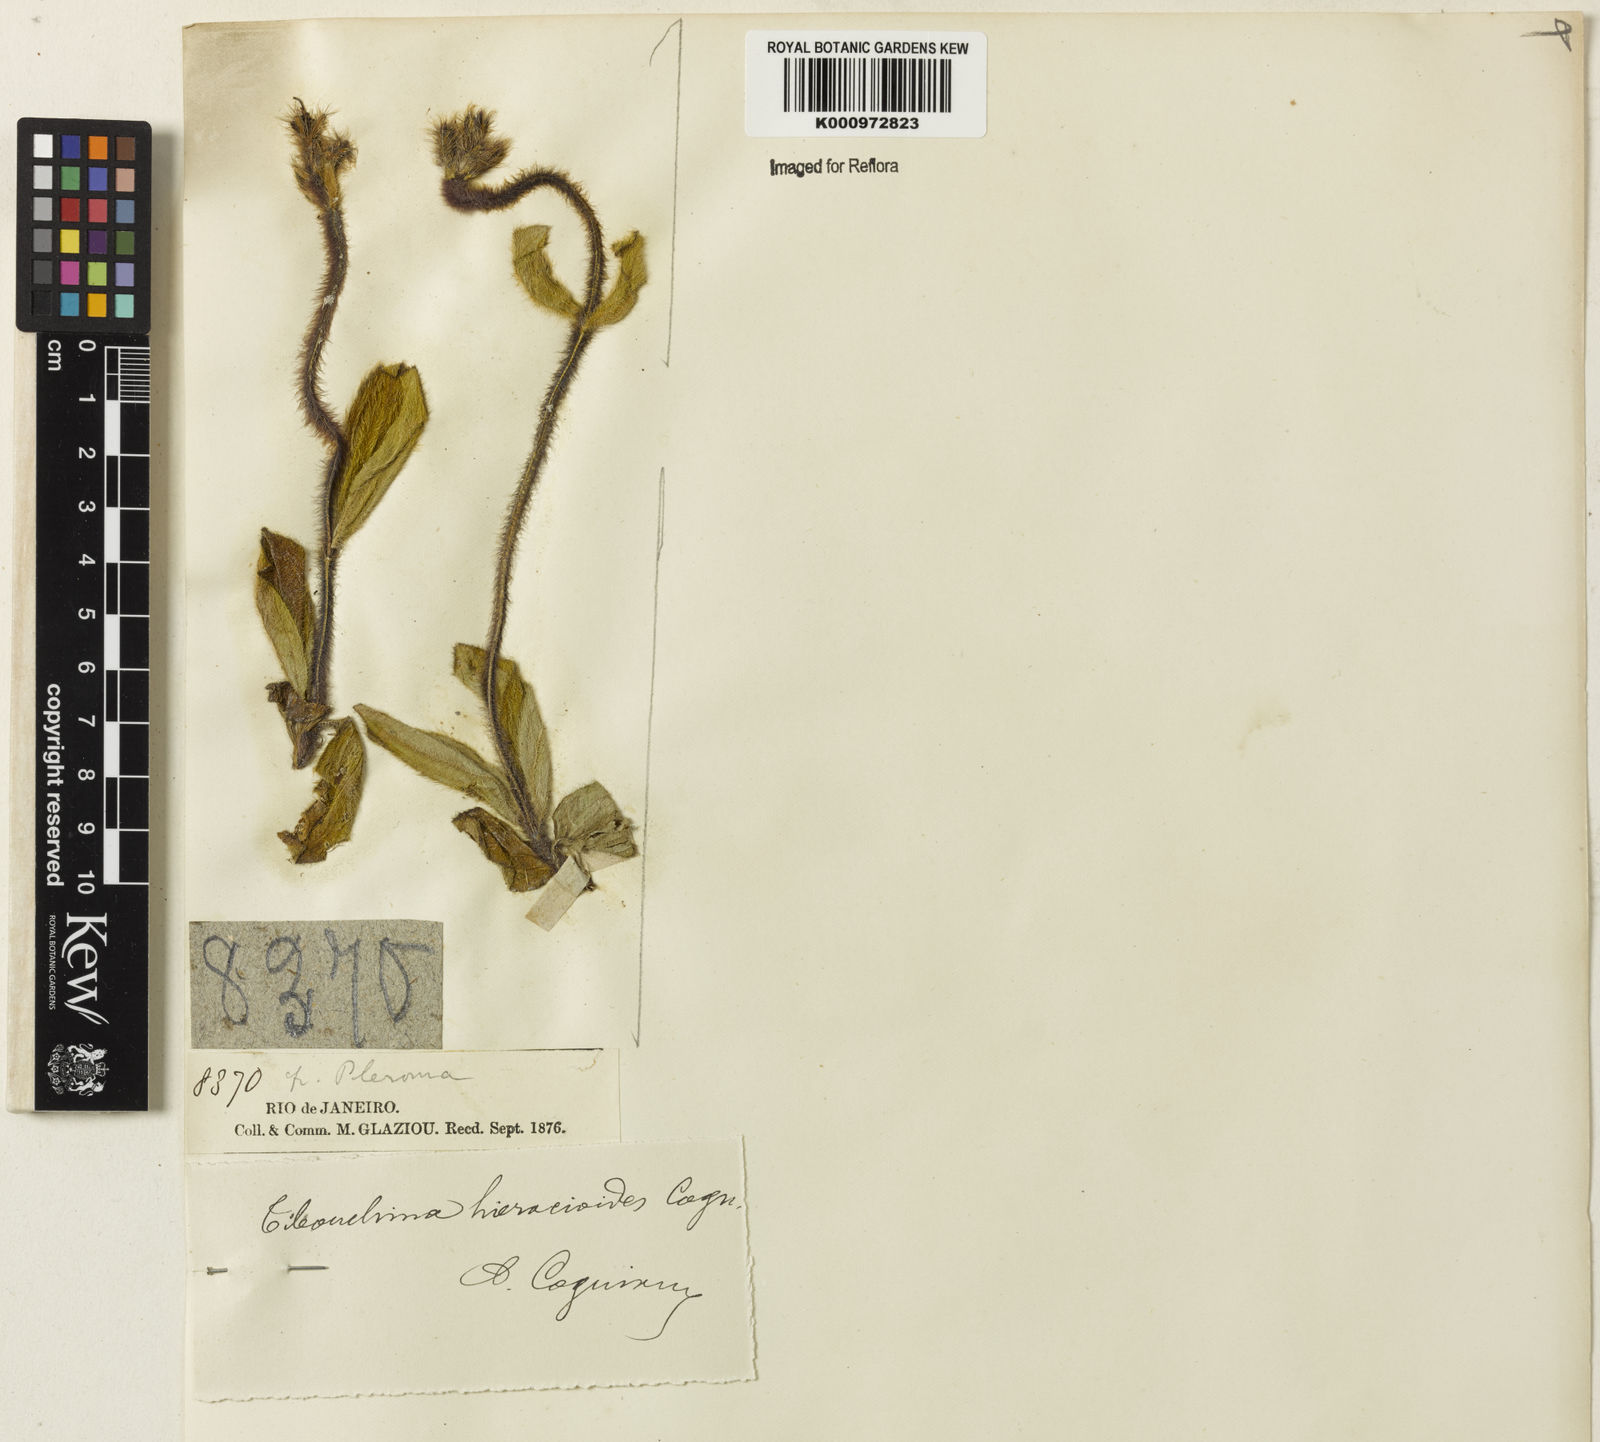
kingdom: Plantae
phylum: Tracheophyta
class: Magnoliopsida
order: Myrtales
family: Melastomataceae
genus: Chaetogastra
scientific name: Chaetogastra hieracioides
